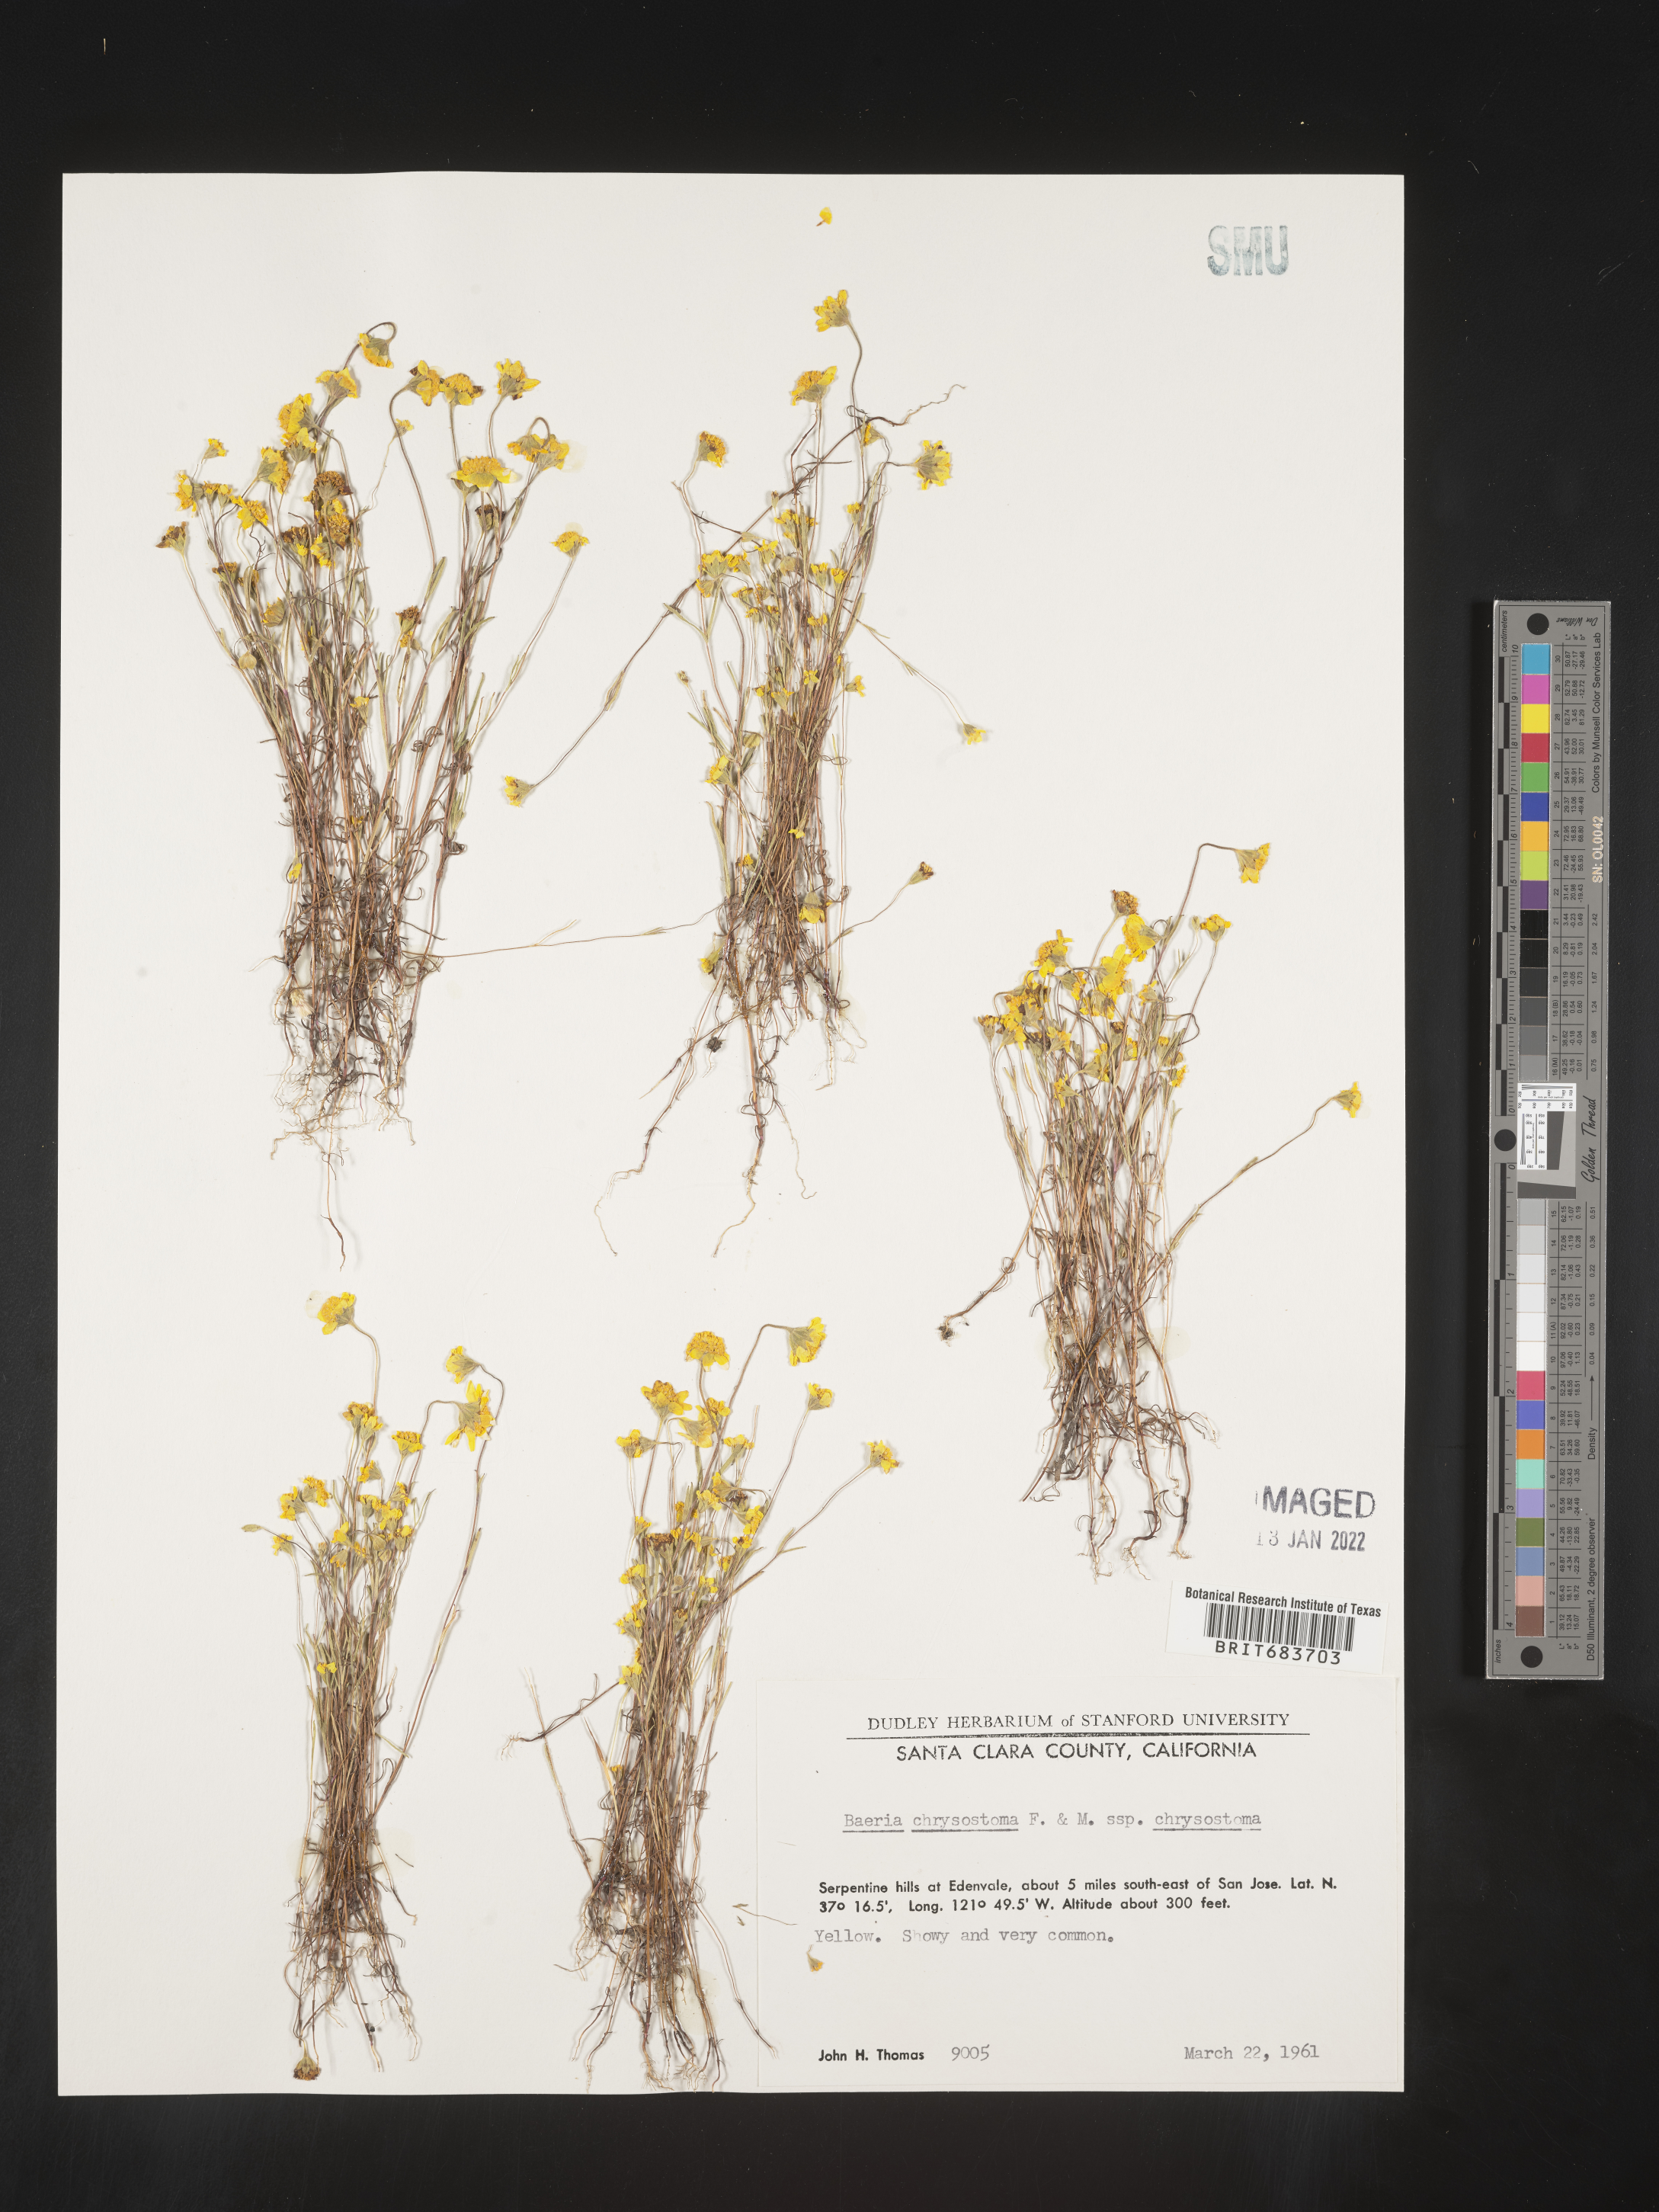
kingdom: Plantae
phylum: Tracheophyta
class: Magnoliopsida
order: Asterales
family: Asteraceae
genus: Lasthenia
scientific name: Lasthenia
